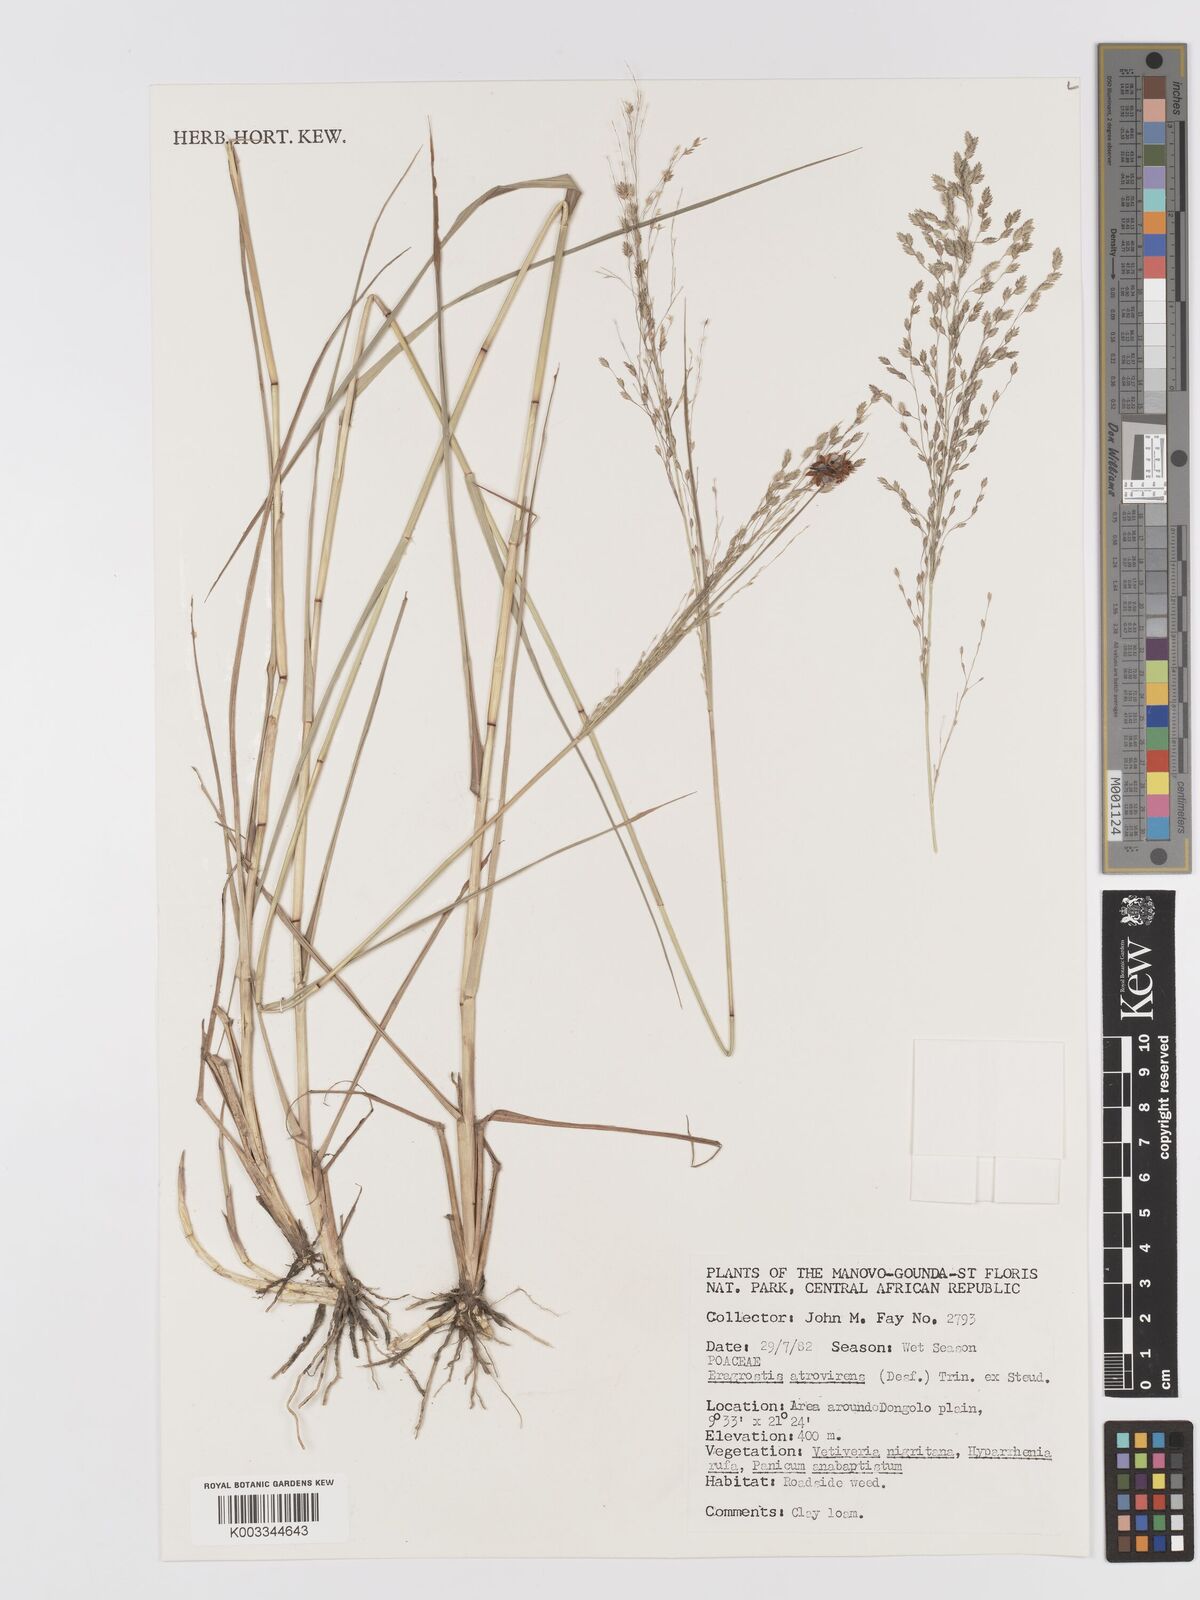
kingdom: Plantae
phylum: Tracheophyta
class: Liliopsida
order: Poales
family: Poaceae
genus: Eragrostis
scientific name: Eragrostis atrovirens
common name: Thalia lovegrass
